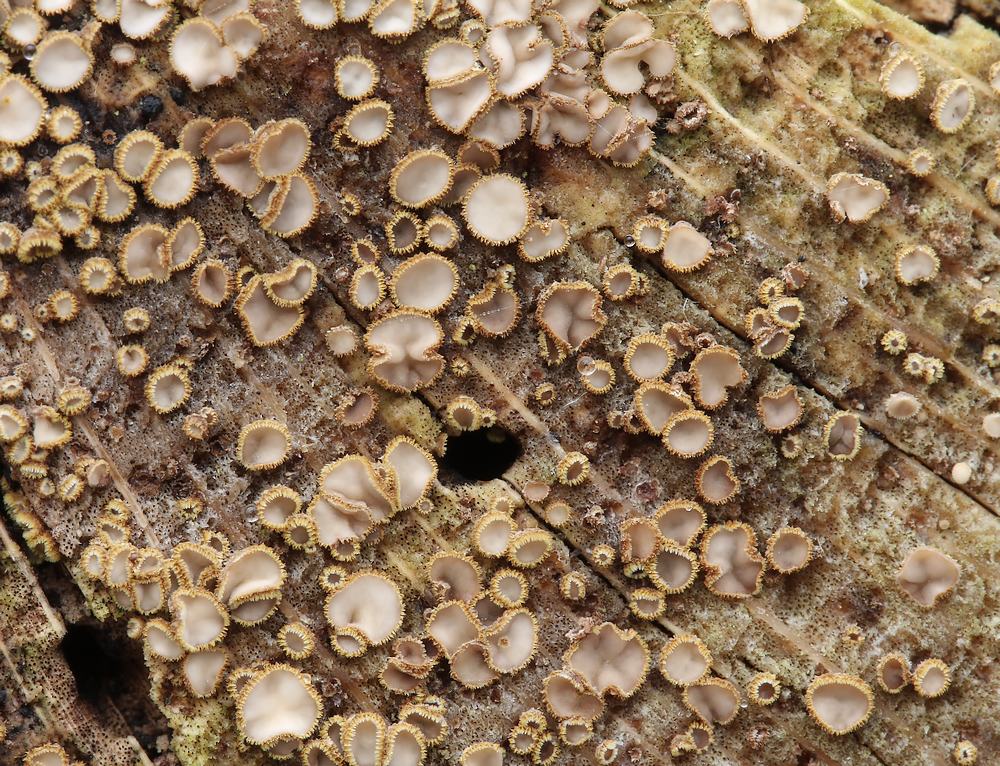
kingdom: Fungi
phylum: Ascomycota
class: Leotiomycetes
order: Helotiales
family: Lachnaceae
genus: Trichopeziza
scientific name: Trichopeziza subsulphurea
